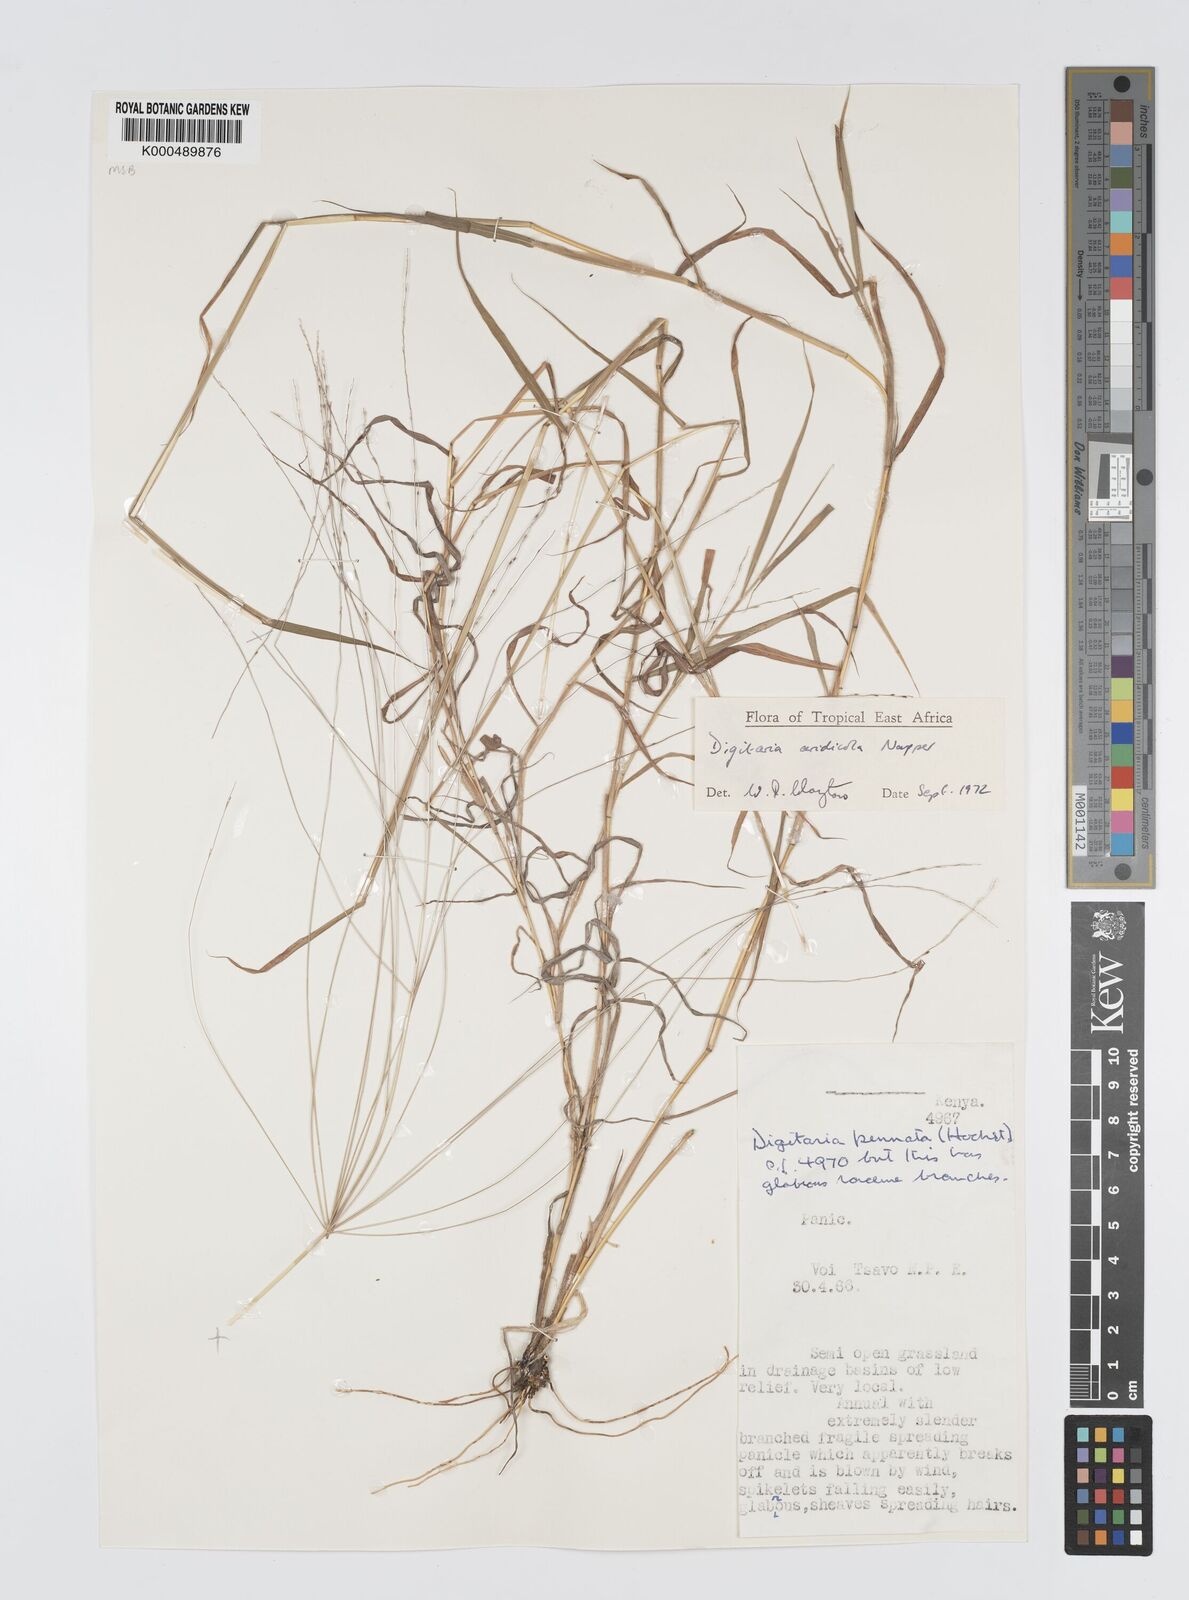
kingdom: Plantae
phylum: Tracheophyta
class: Liliopsida
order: Poales
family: Poaceae
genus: Digitaria
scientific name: Digitaria aridicola
